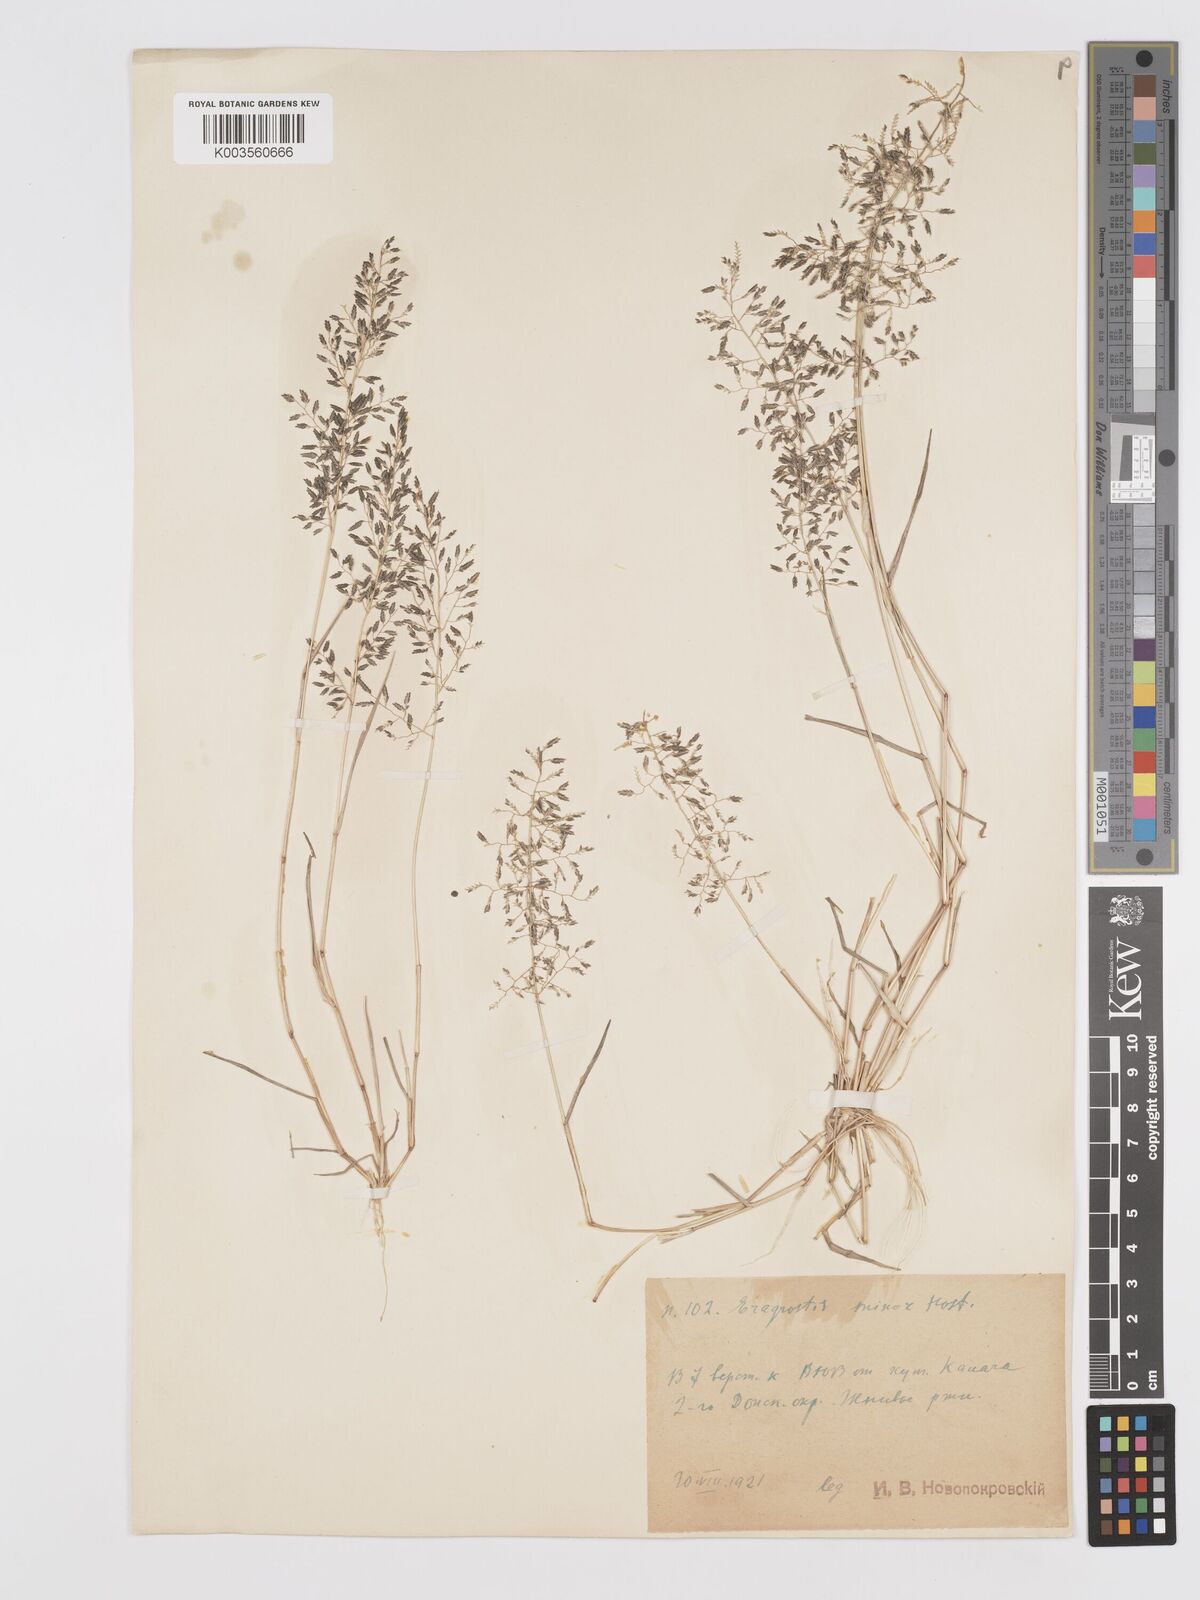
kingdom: Plantae
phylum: Tracheophyta
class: Liliopsida
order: Poales
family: Poaceae
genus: Eragrostis
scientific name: Eragrostis minor
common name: Small love-grass
